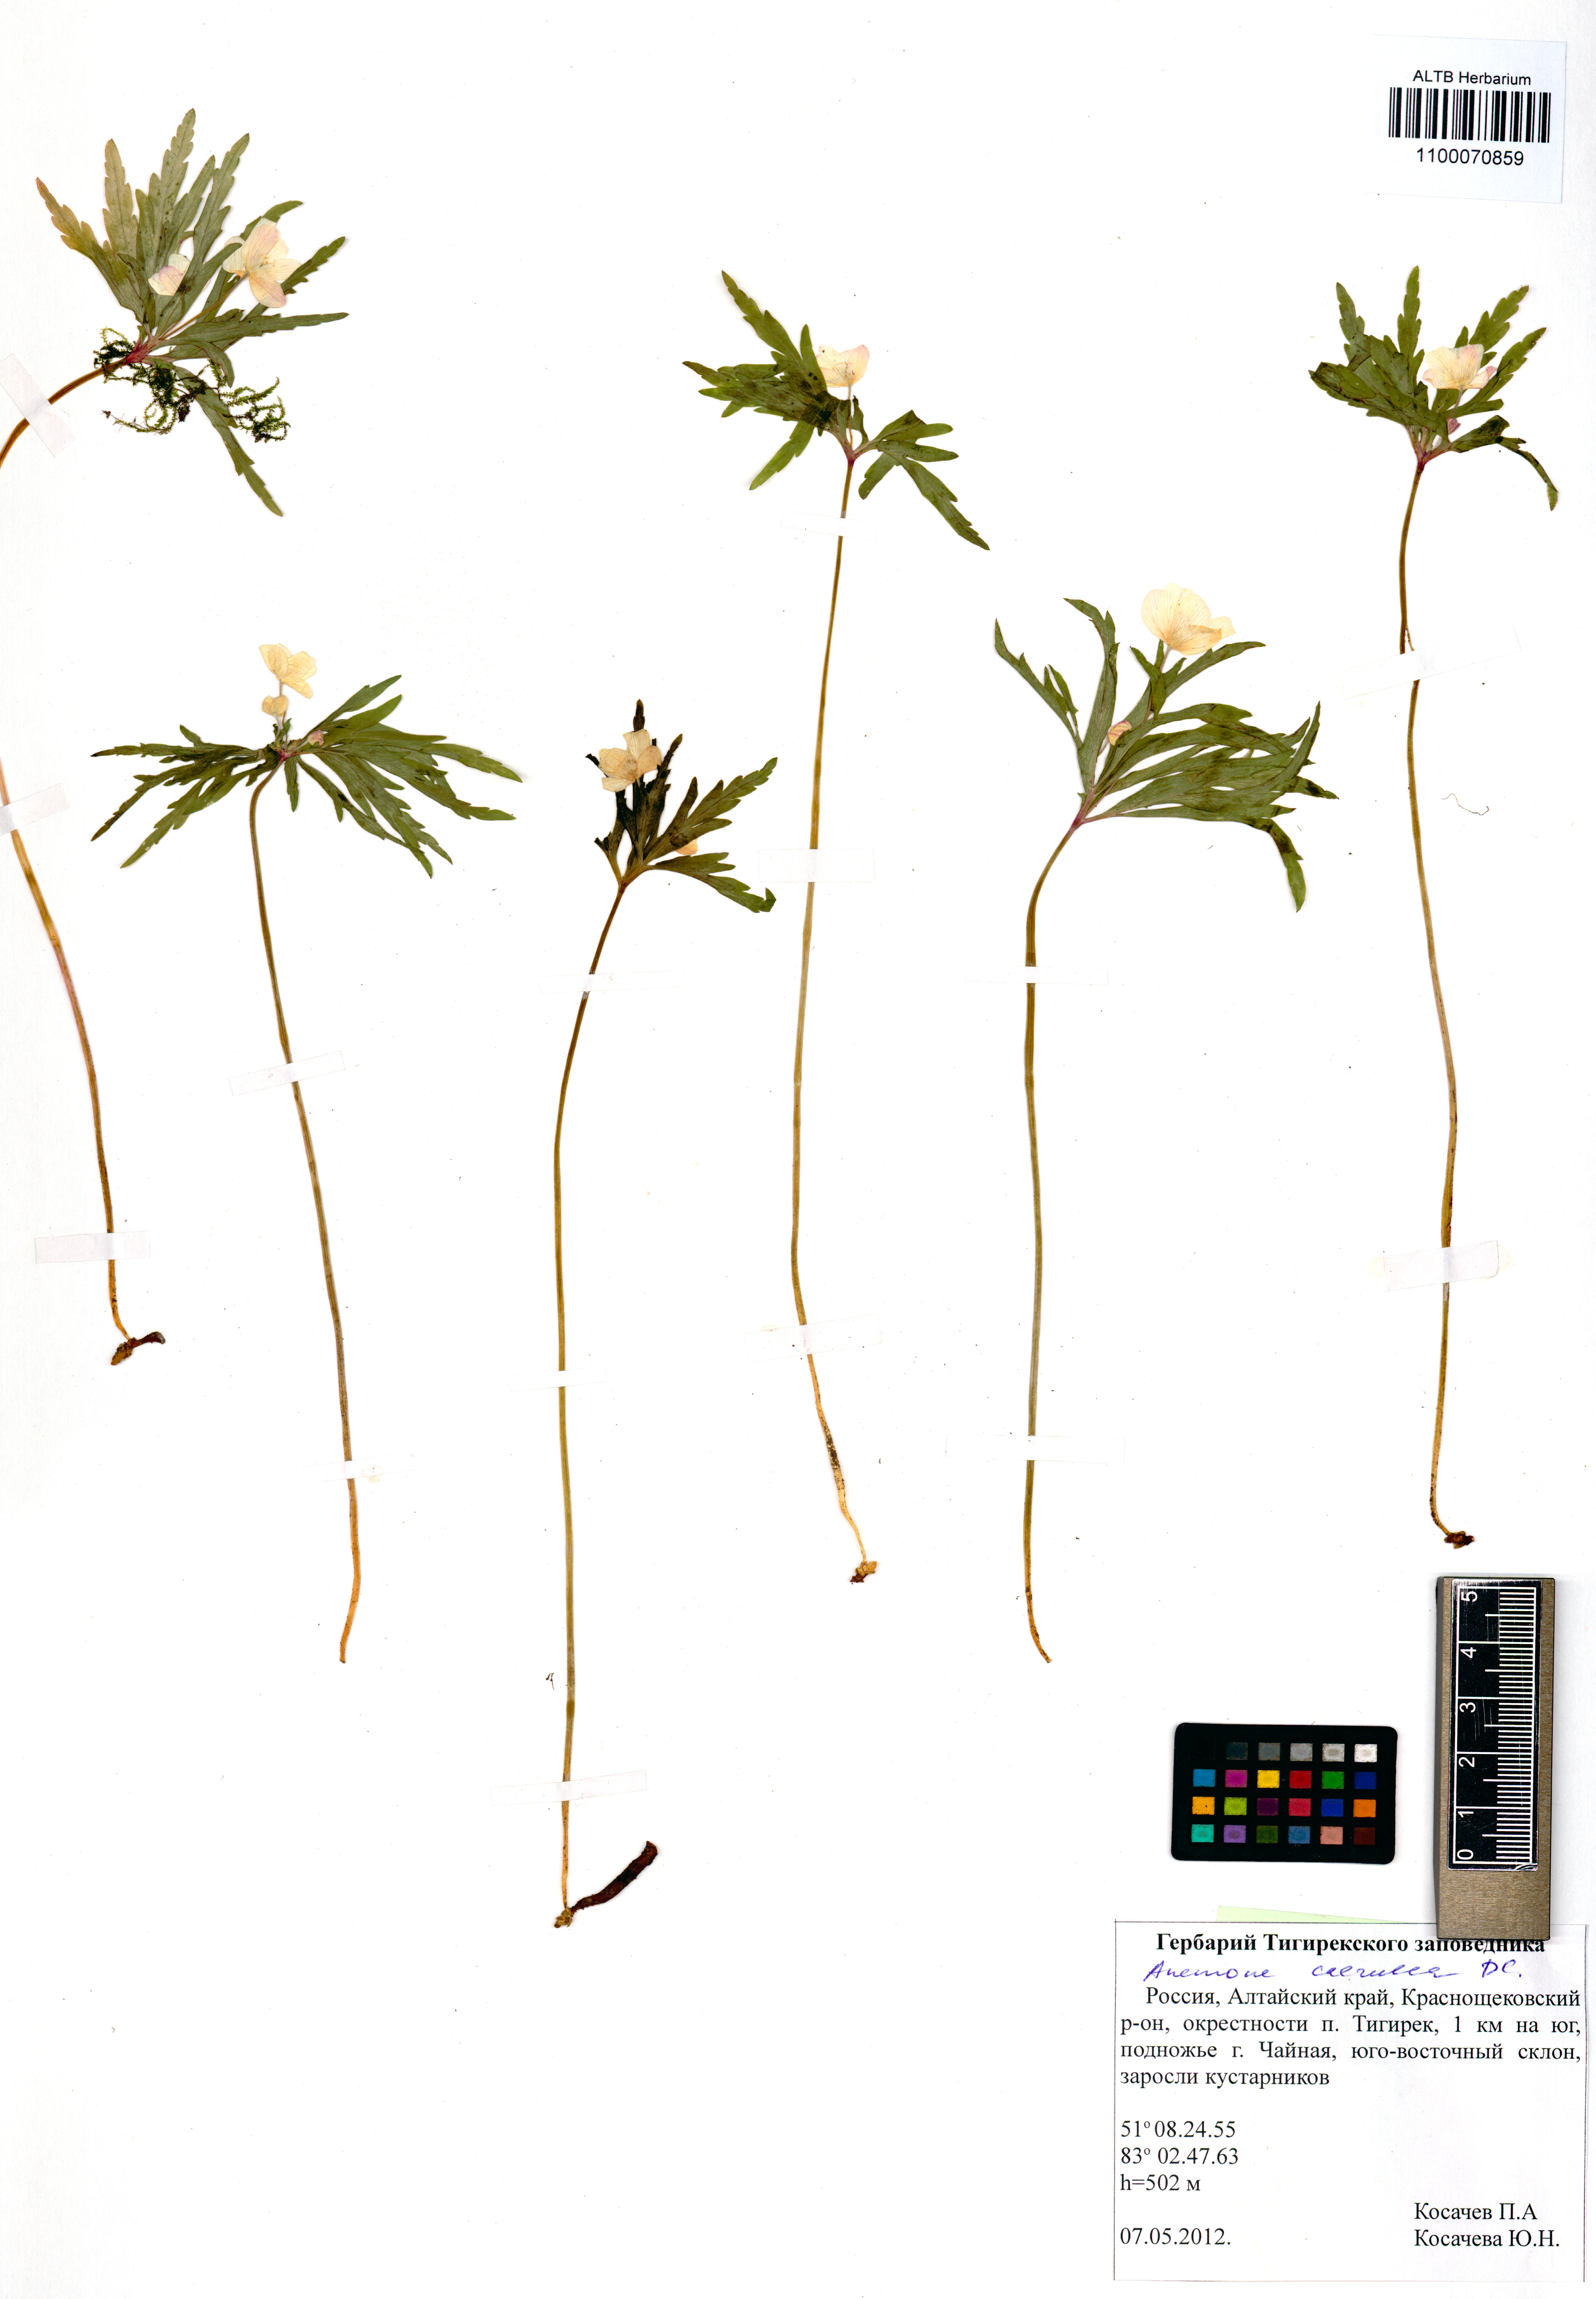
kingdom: Plantae
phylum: Tracheophyta
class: Magnoliopsida
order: Ranunculales
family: Ranunculaceae
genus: Anemone
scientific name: Anemone caerulea
